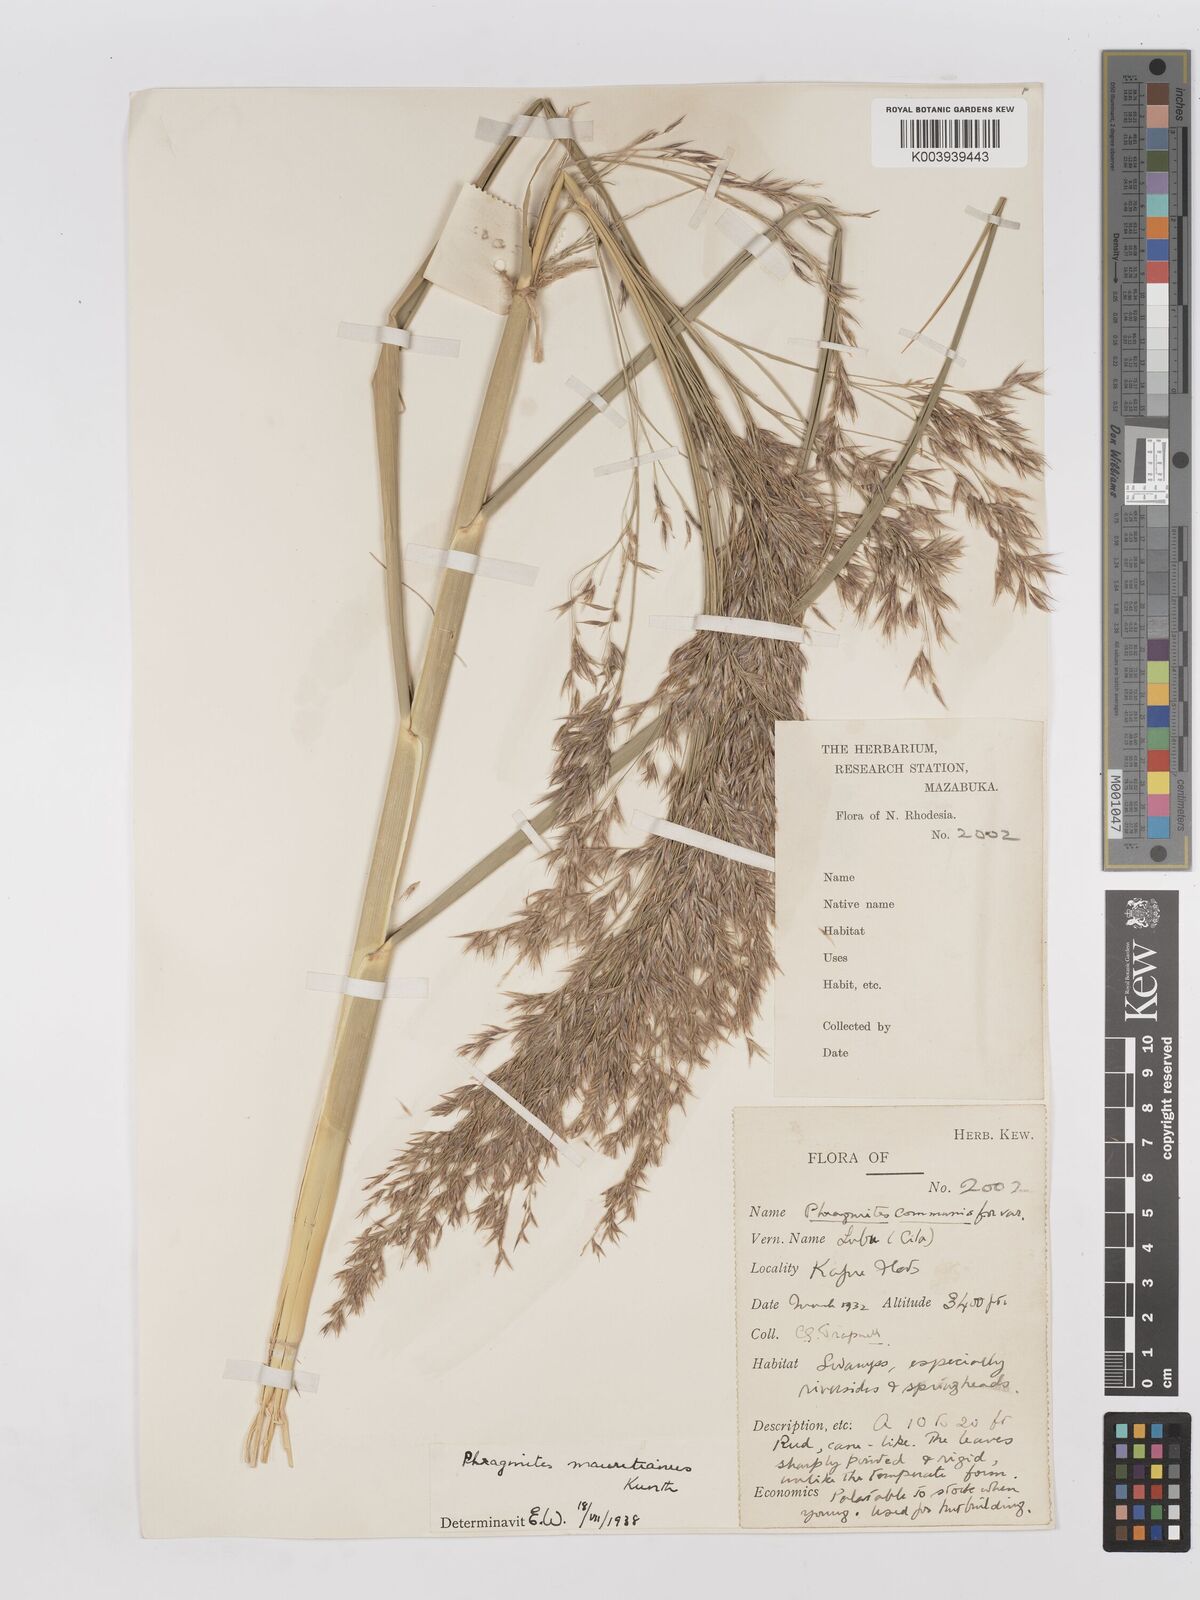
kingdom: Plantae
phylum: Tracheophyta
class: Liliopsida
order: Poales
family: Poaceae
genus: Phragmites
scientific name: Phragmites mauritianus
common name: Reed grass
